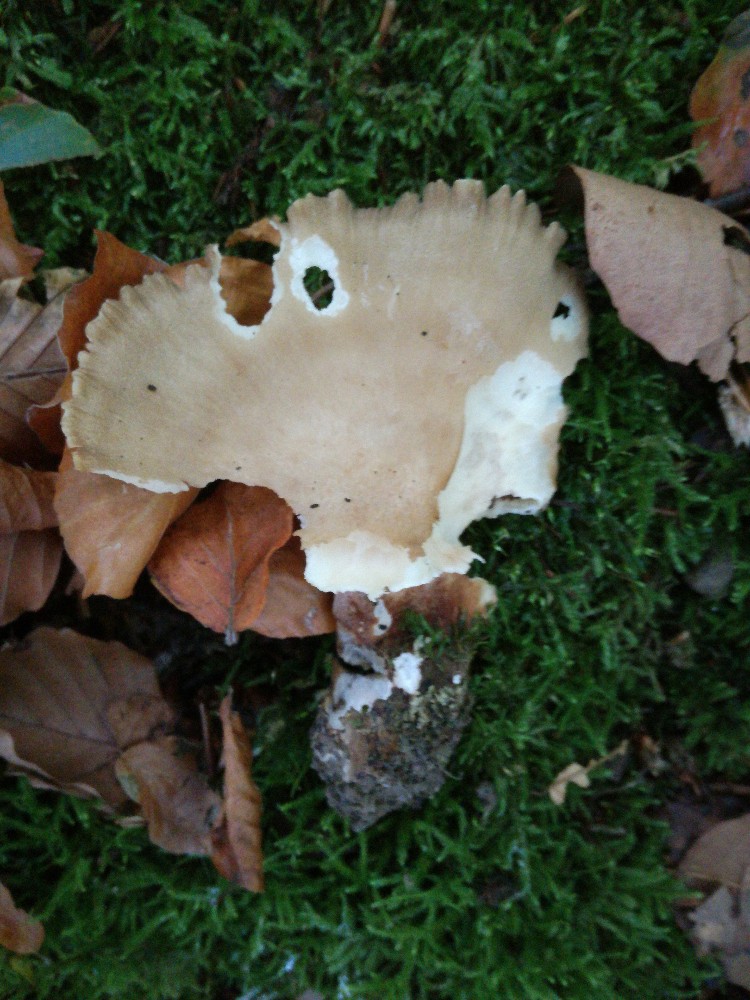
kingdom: Fungi
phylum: Basidiomycota
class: Agaricomycetes
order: Polyporales
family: Polyporaceae
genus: Picipes
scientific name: Picipes melanopus
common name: sortfodet stilkporesvamp
